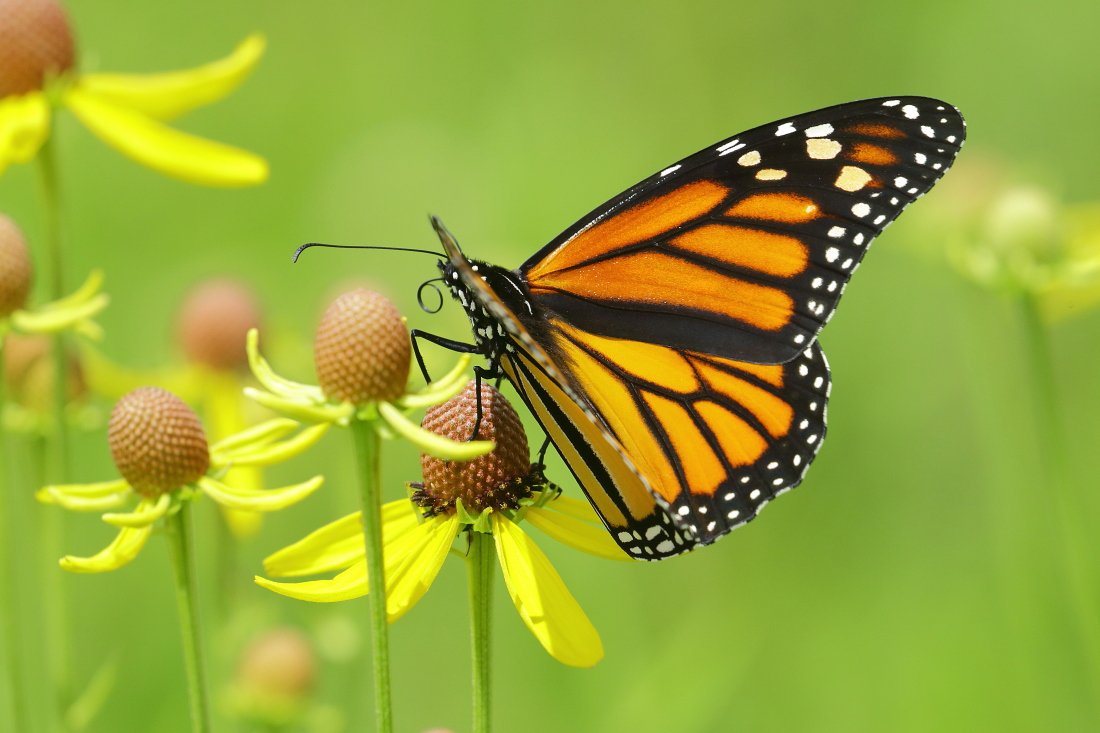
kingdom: Animalia
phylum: Arthropoda
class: Insecta
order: Lepidoptera
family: Nymphalidae
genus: Danaus
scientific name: Danaus plexippus
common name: Monarch
